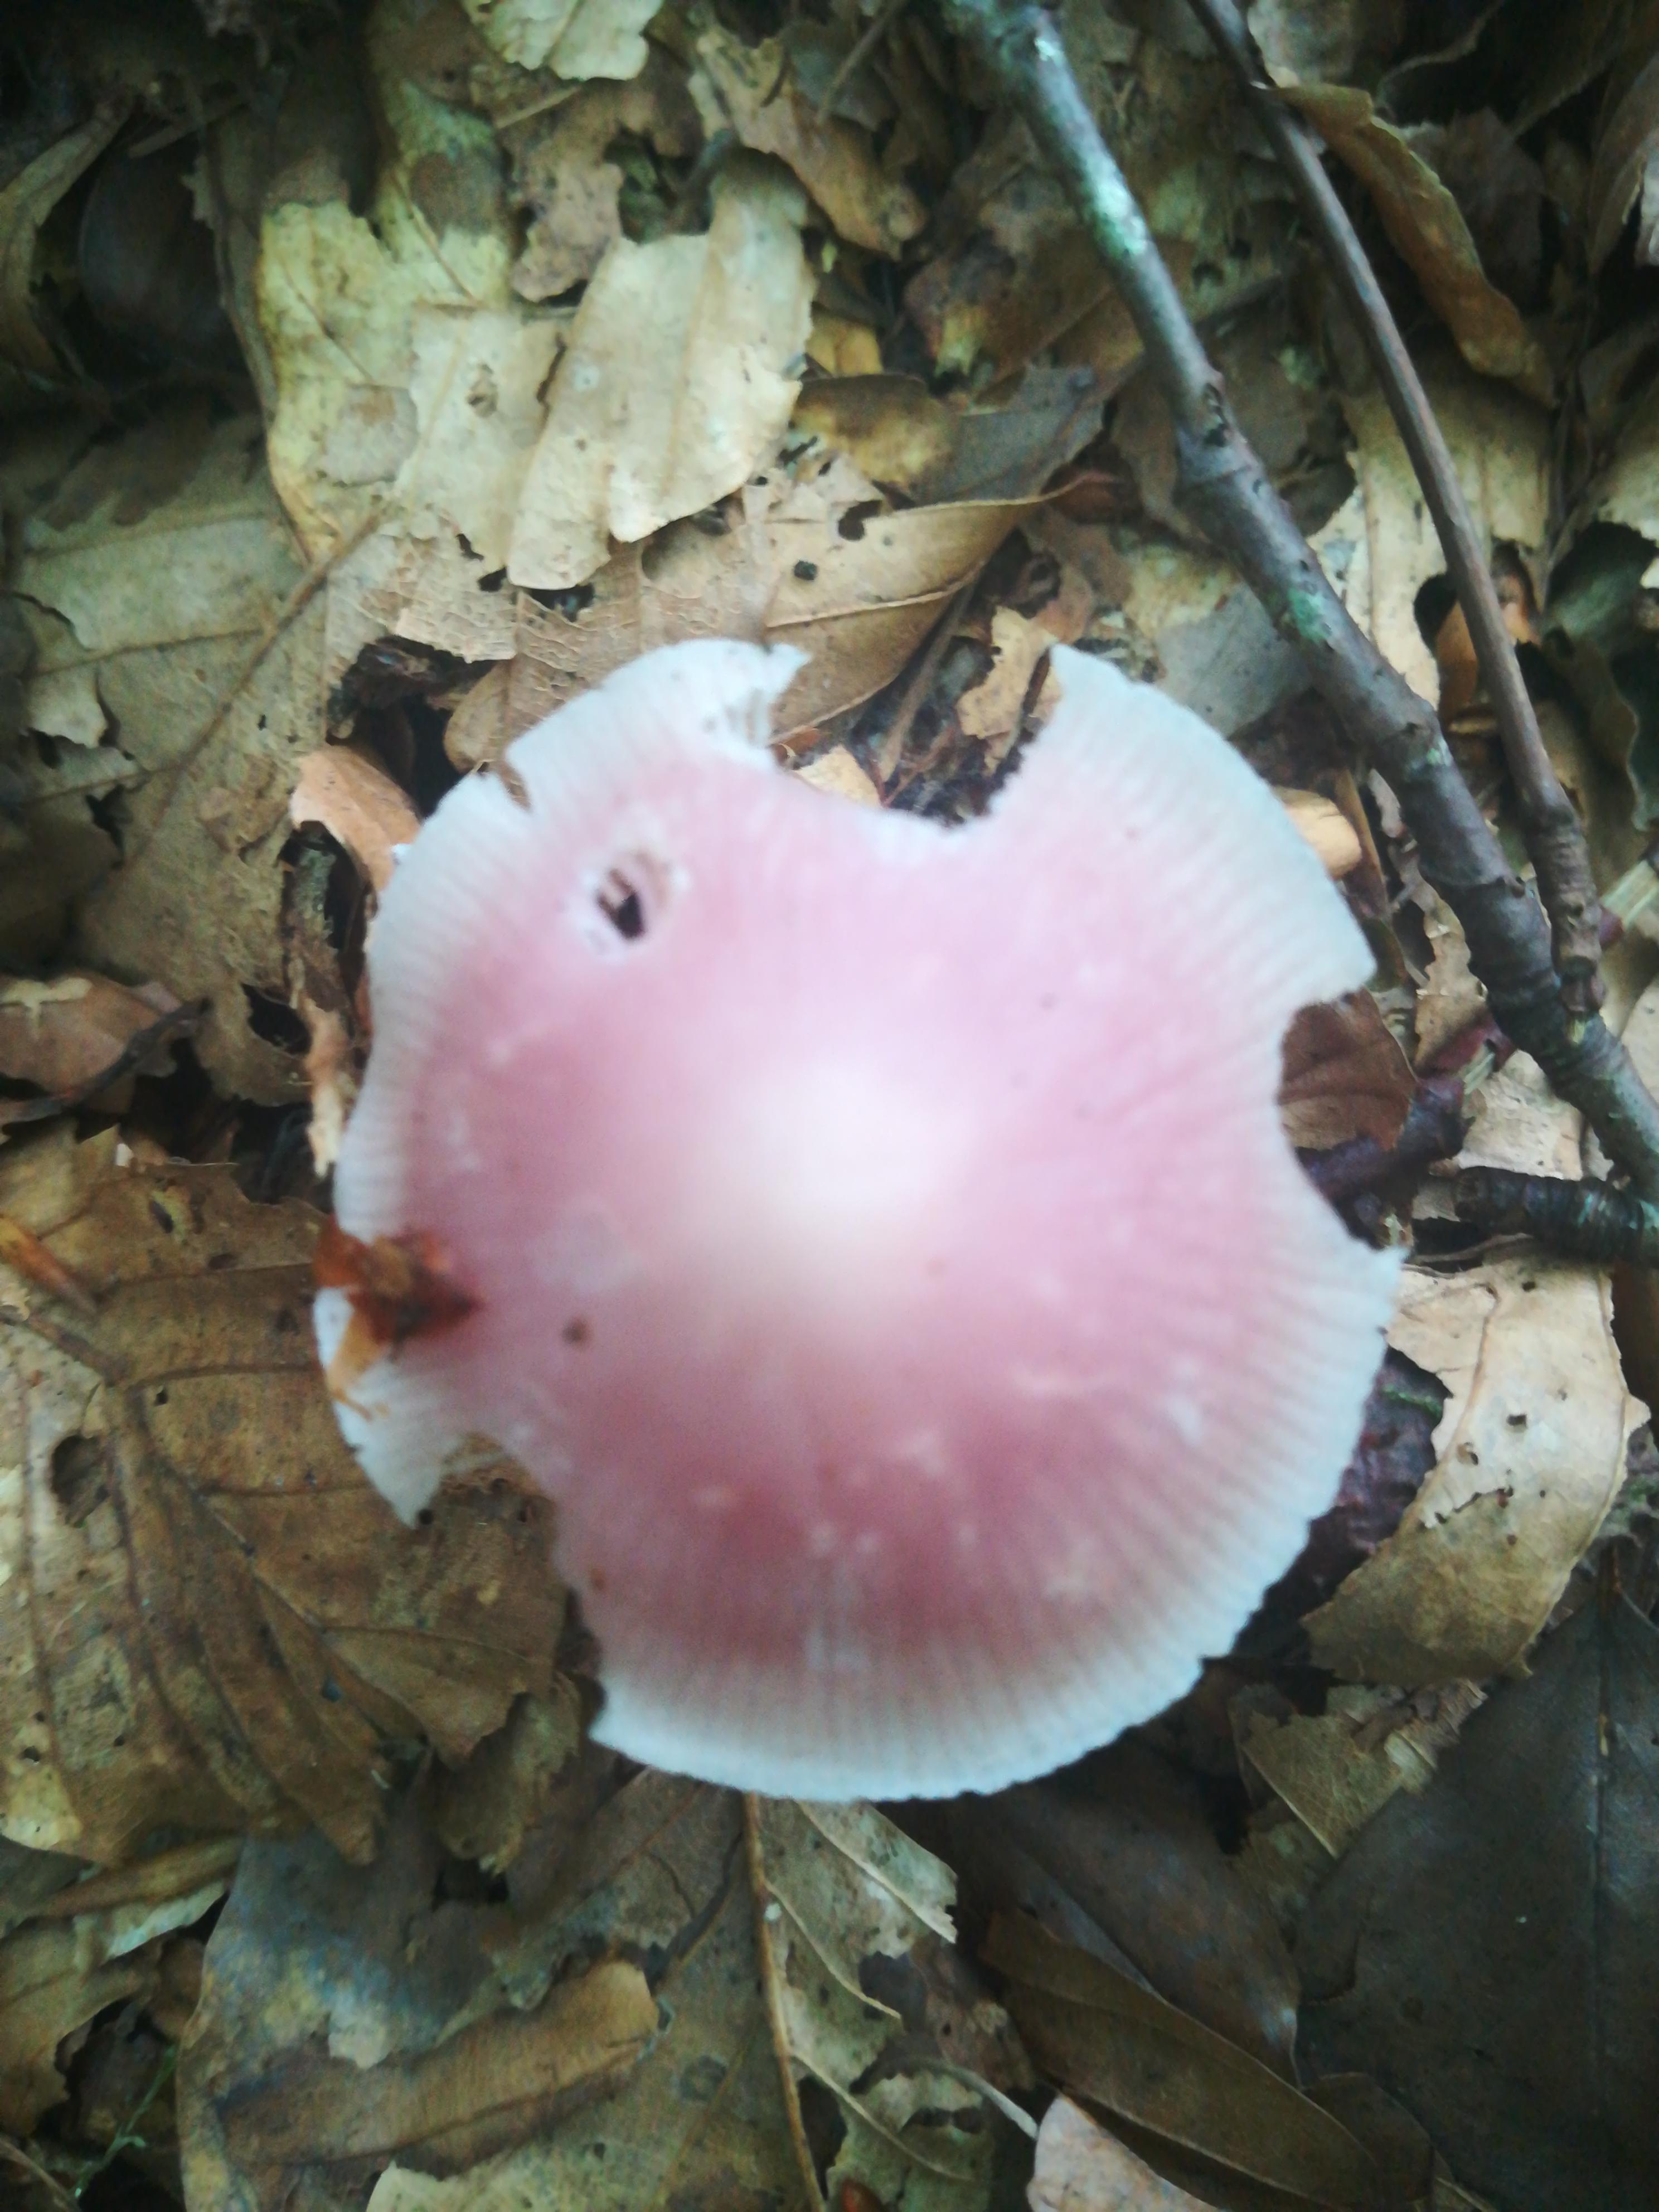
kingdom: Fungi
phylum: Basidiomycota
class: Agaricomycetes
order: Agaricales
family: Mycenaceae
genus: Mycena
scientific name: Mycena rosea
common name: rosa huesvamp
